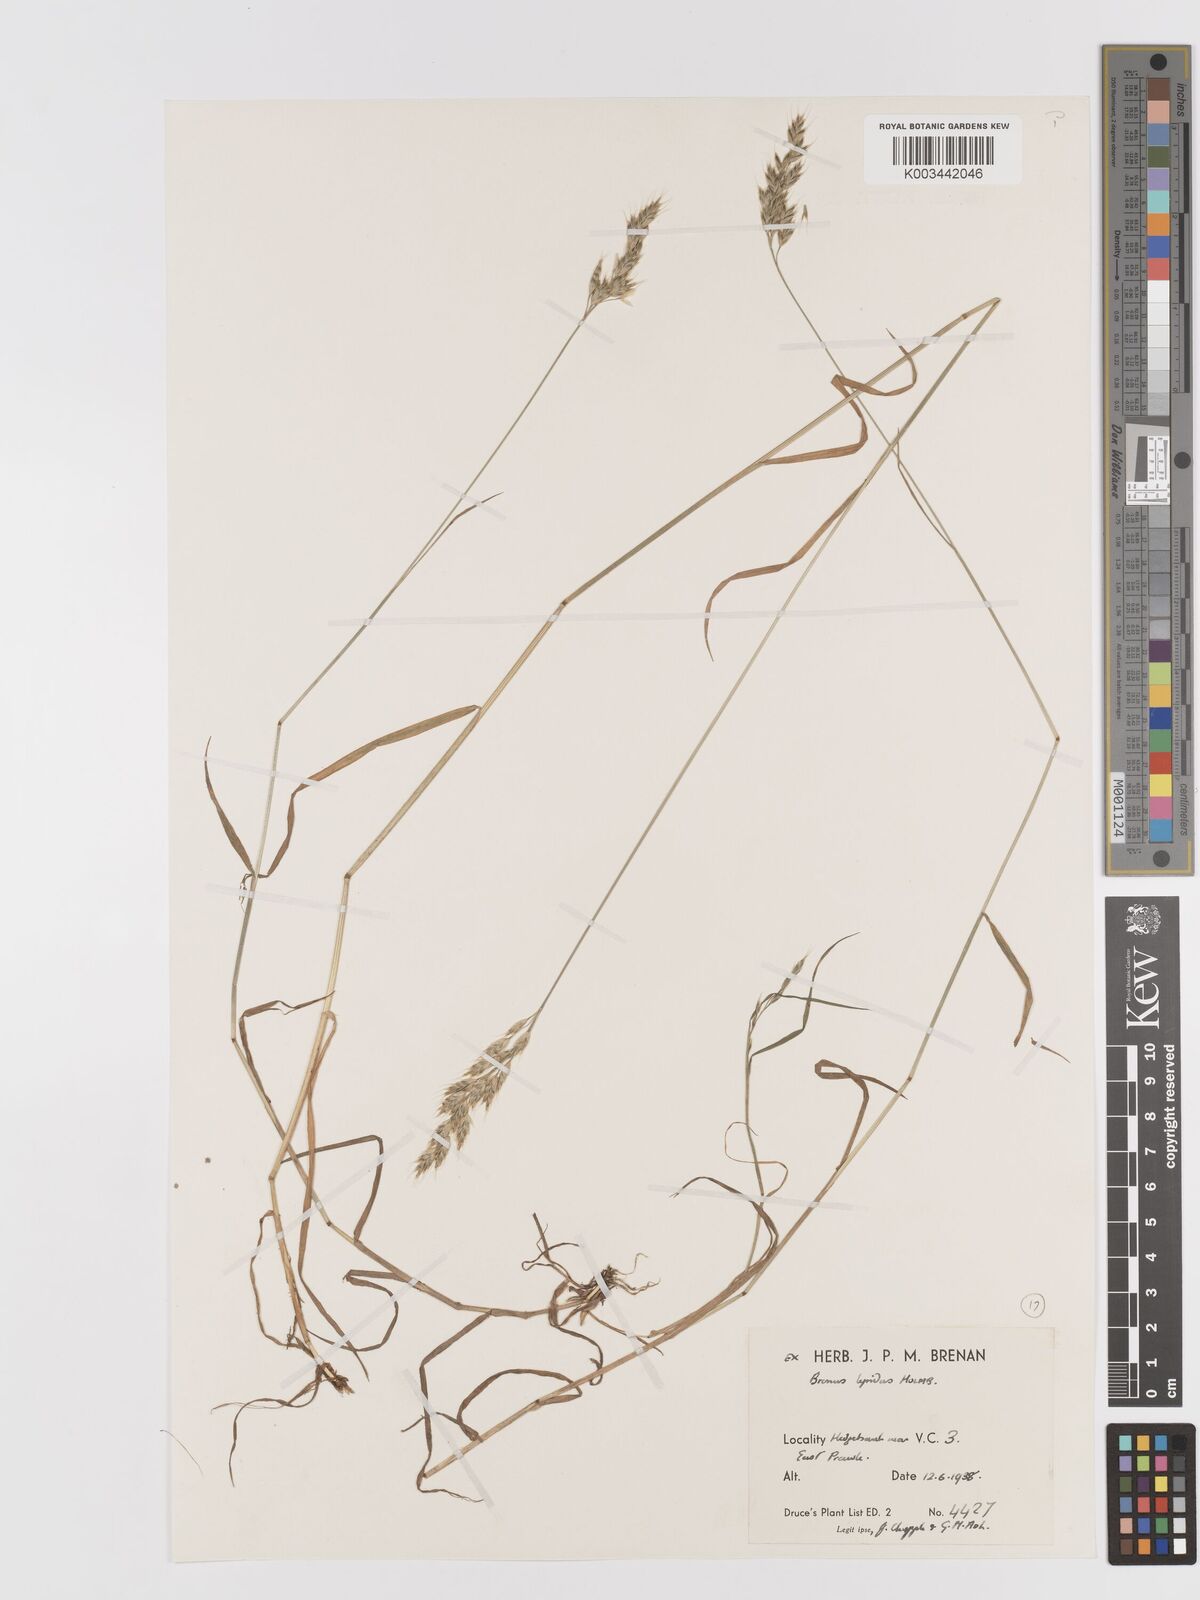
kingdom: Plantae
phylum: Tracheophyta
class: Liliopsida
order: Poales
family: Poaceae
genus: Bromus
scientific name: Bromus lepidus
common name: Slender soft-brome
